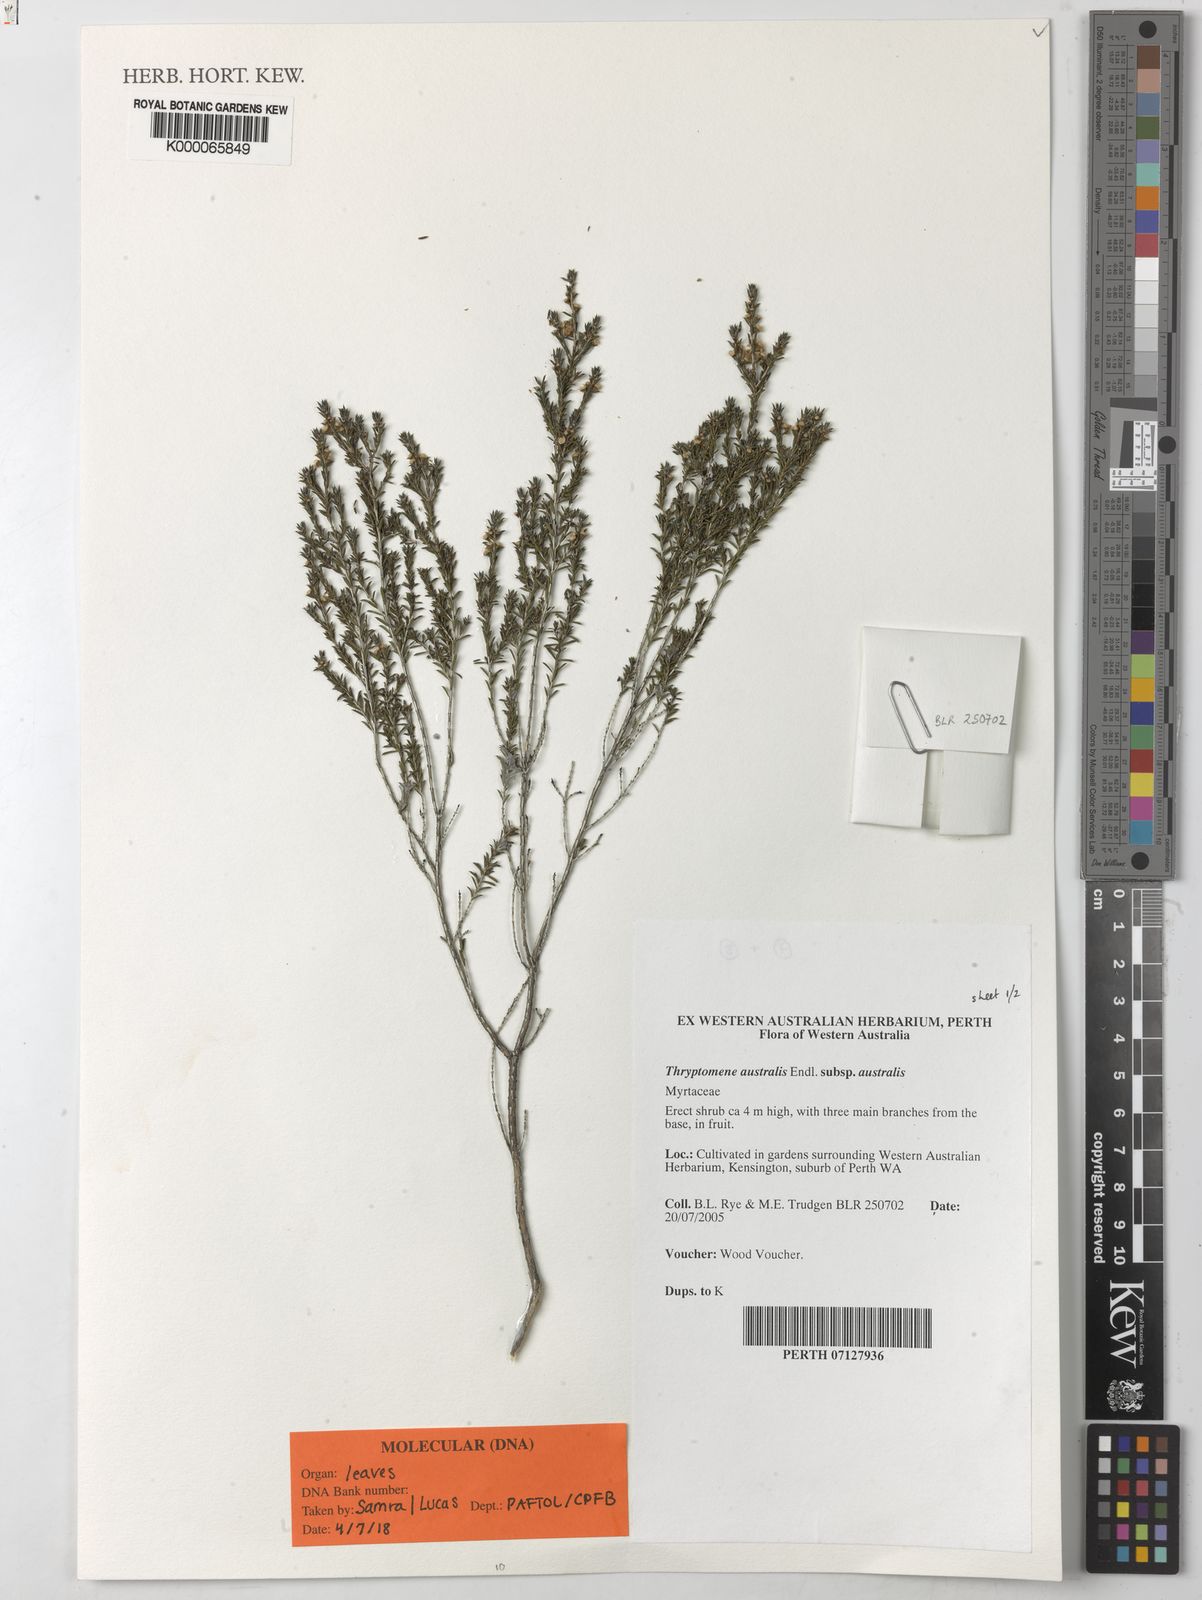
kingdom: Plantae
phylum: Tracheophyta
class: Magnoliopsida
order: Myrtales
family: Myrtaceae
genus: Thryptomene
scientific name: Thryptomene australis
